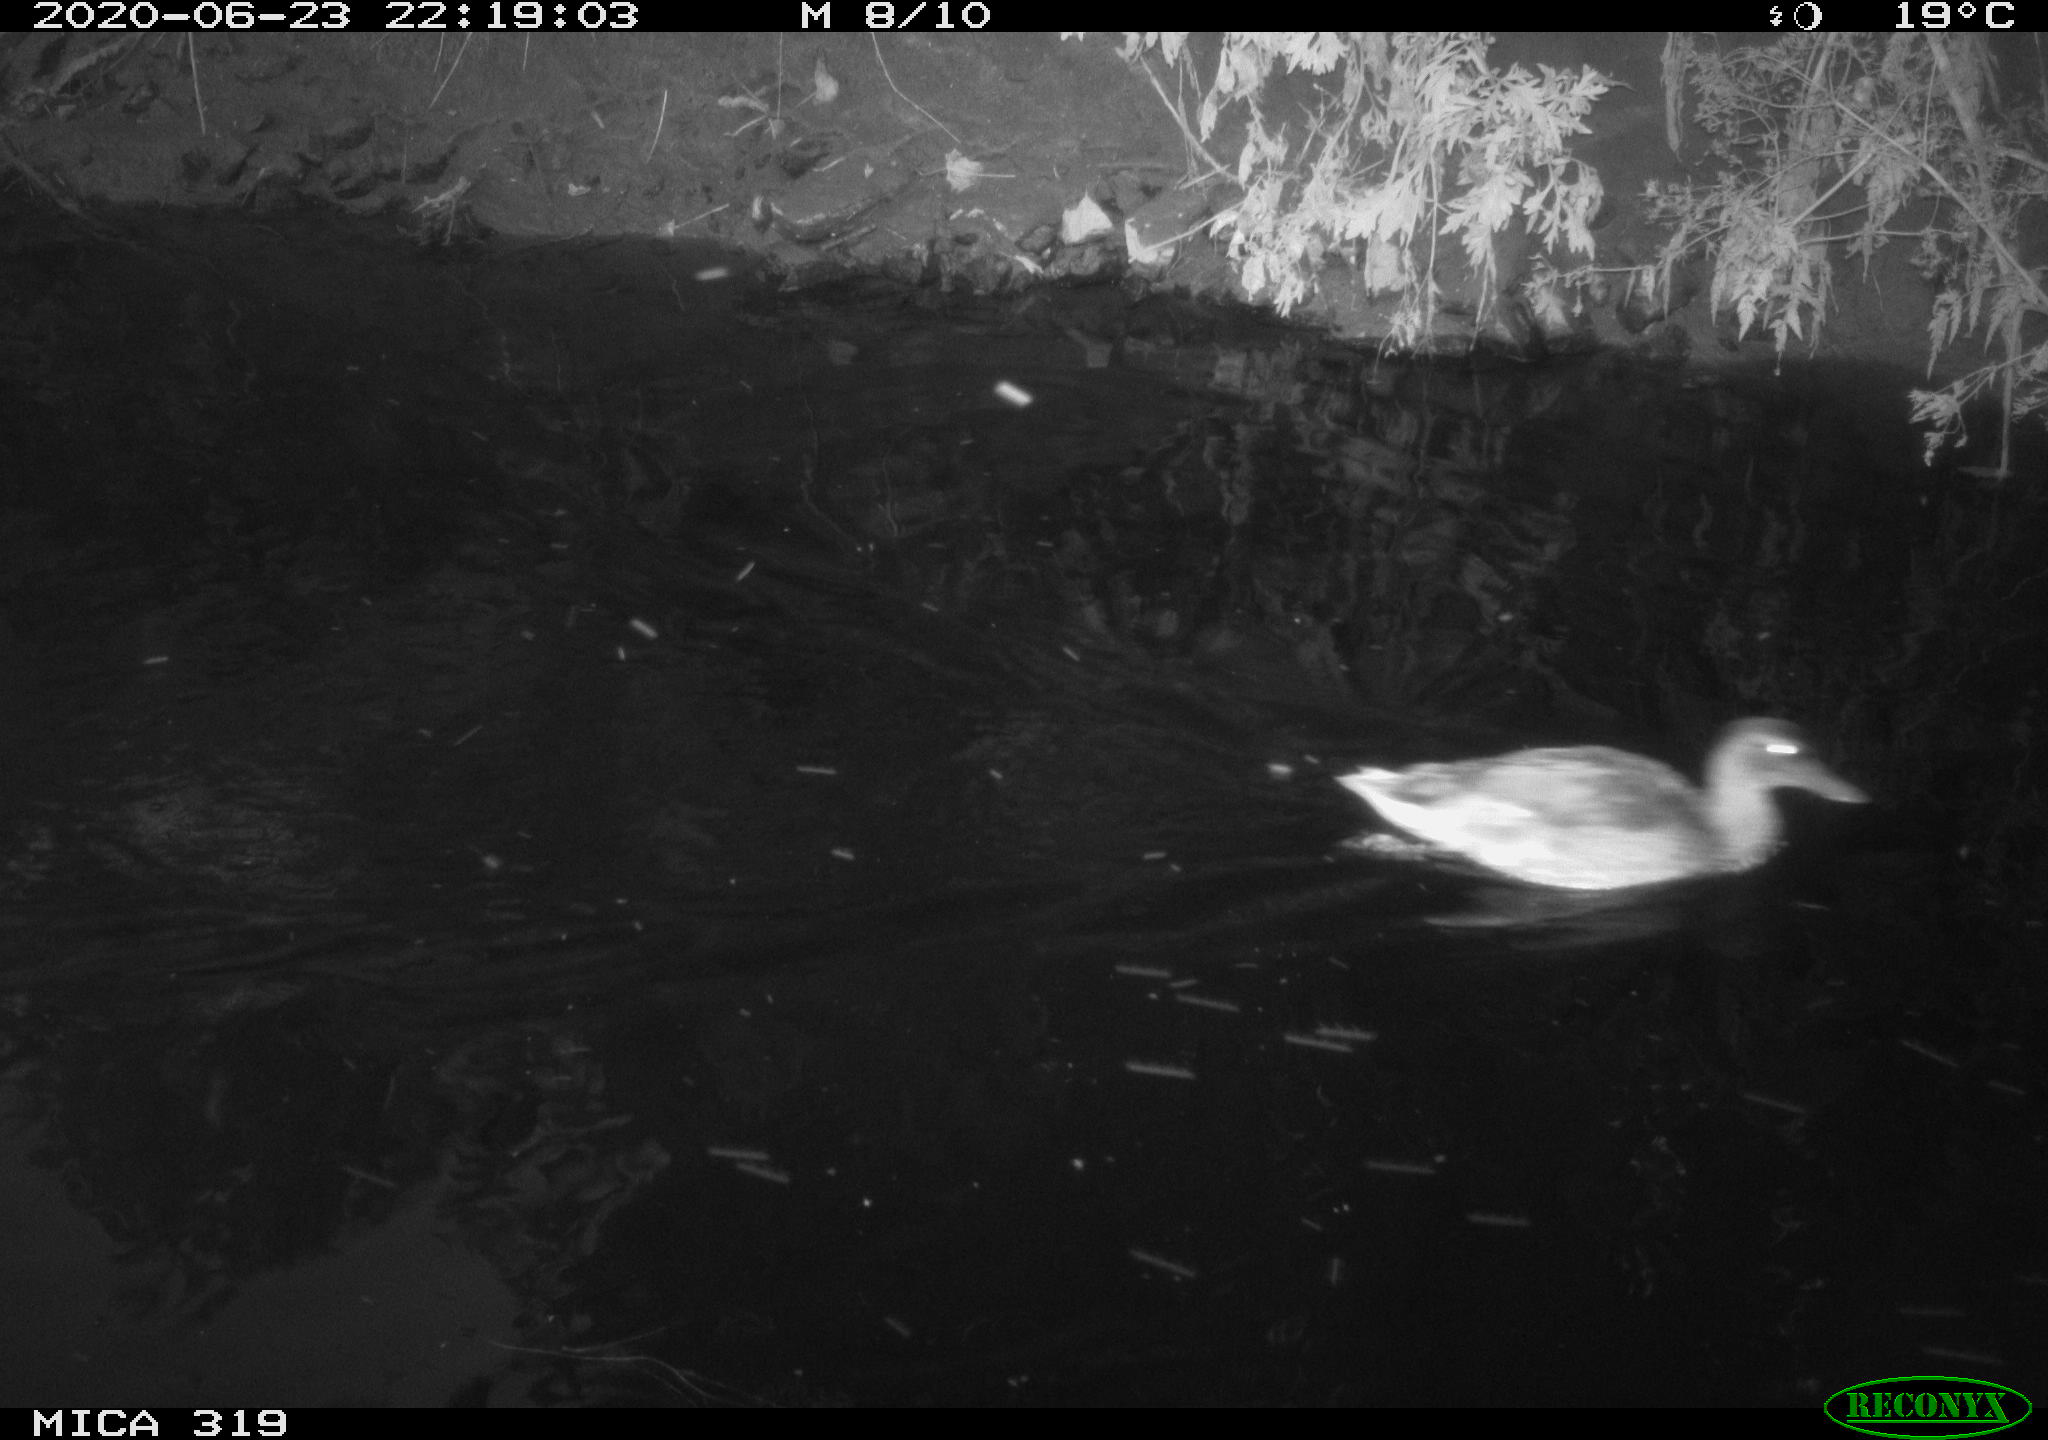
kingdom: Animalia
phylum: Chordata
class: Aves
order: Anseriformes
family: Anatidae
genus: Anas
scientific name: Anas platyrhynchos
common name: Mallard
